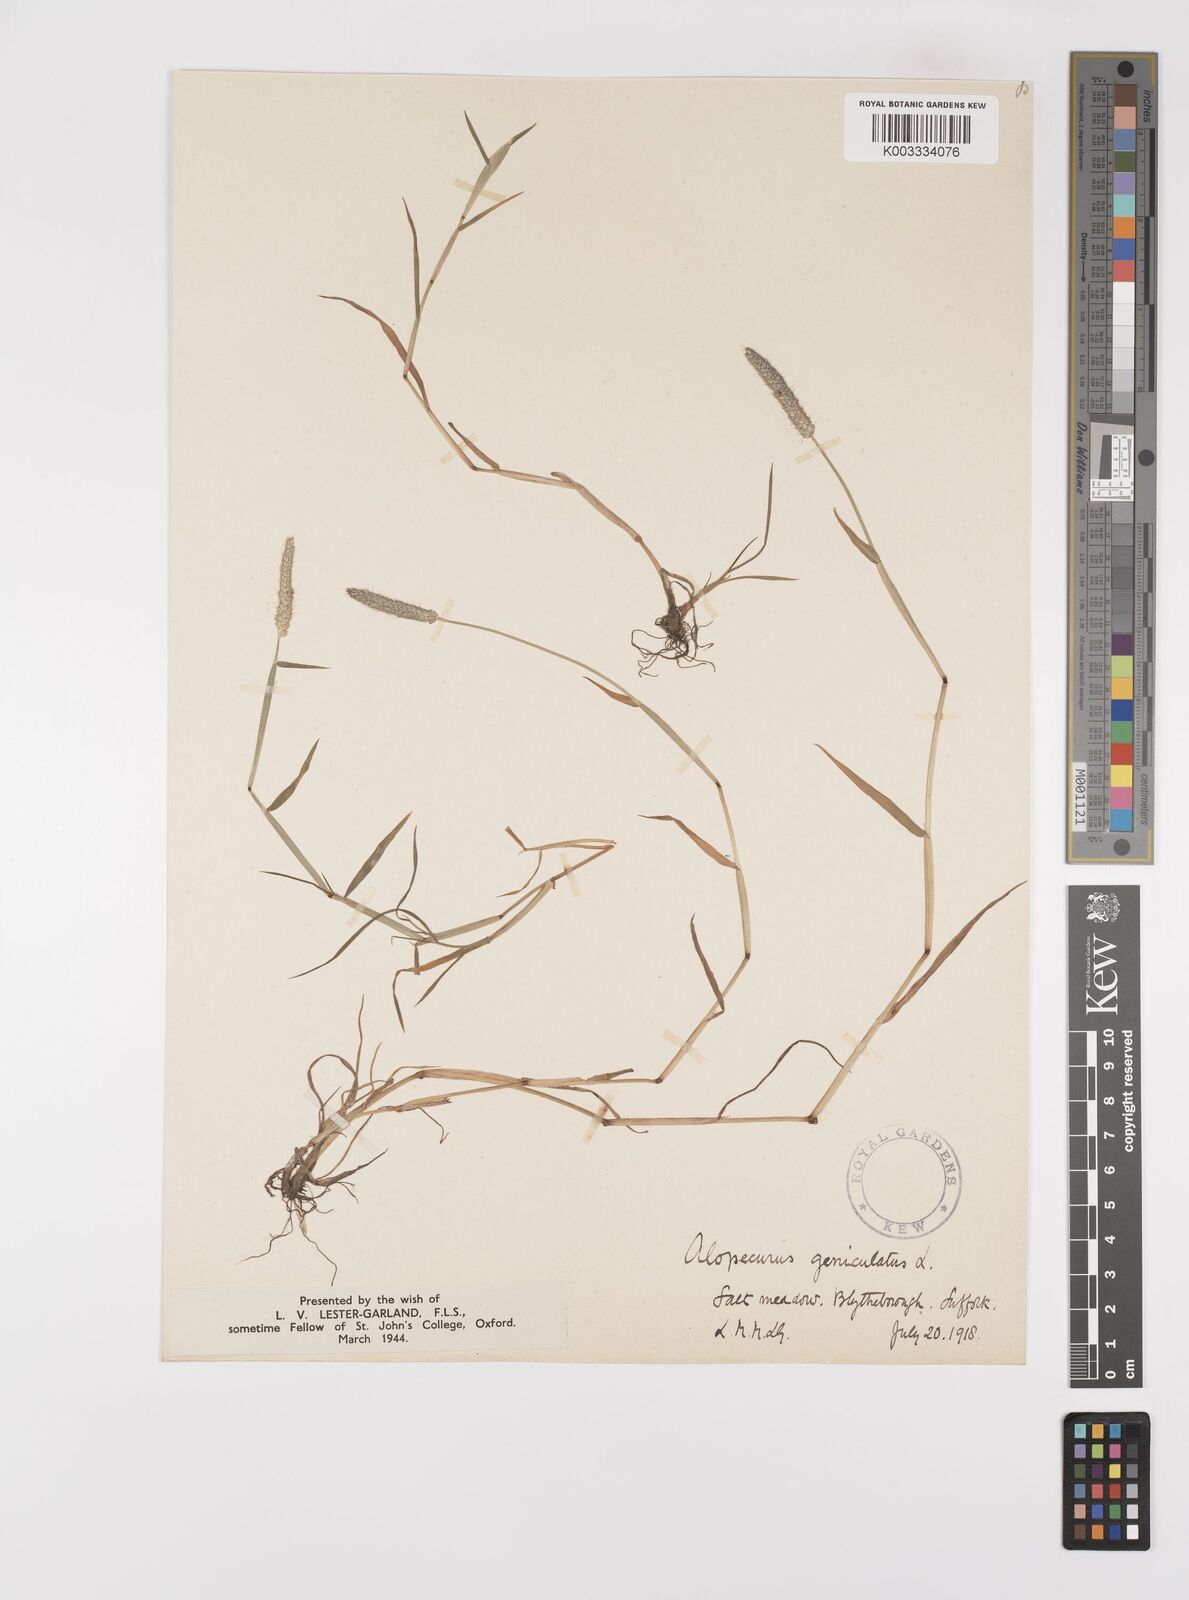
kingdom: Plantae
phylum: Tracheophyta
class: Liliopsida
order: Poales
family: Poaceae
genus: Alopecurus
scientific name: Alopecurus geniculatus
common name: Water foxtail
